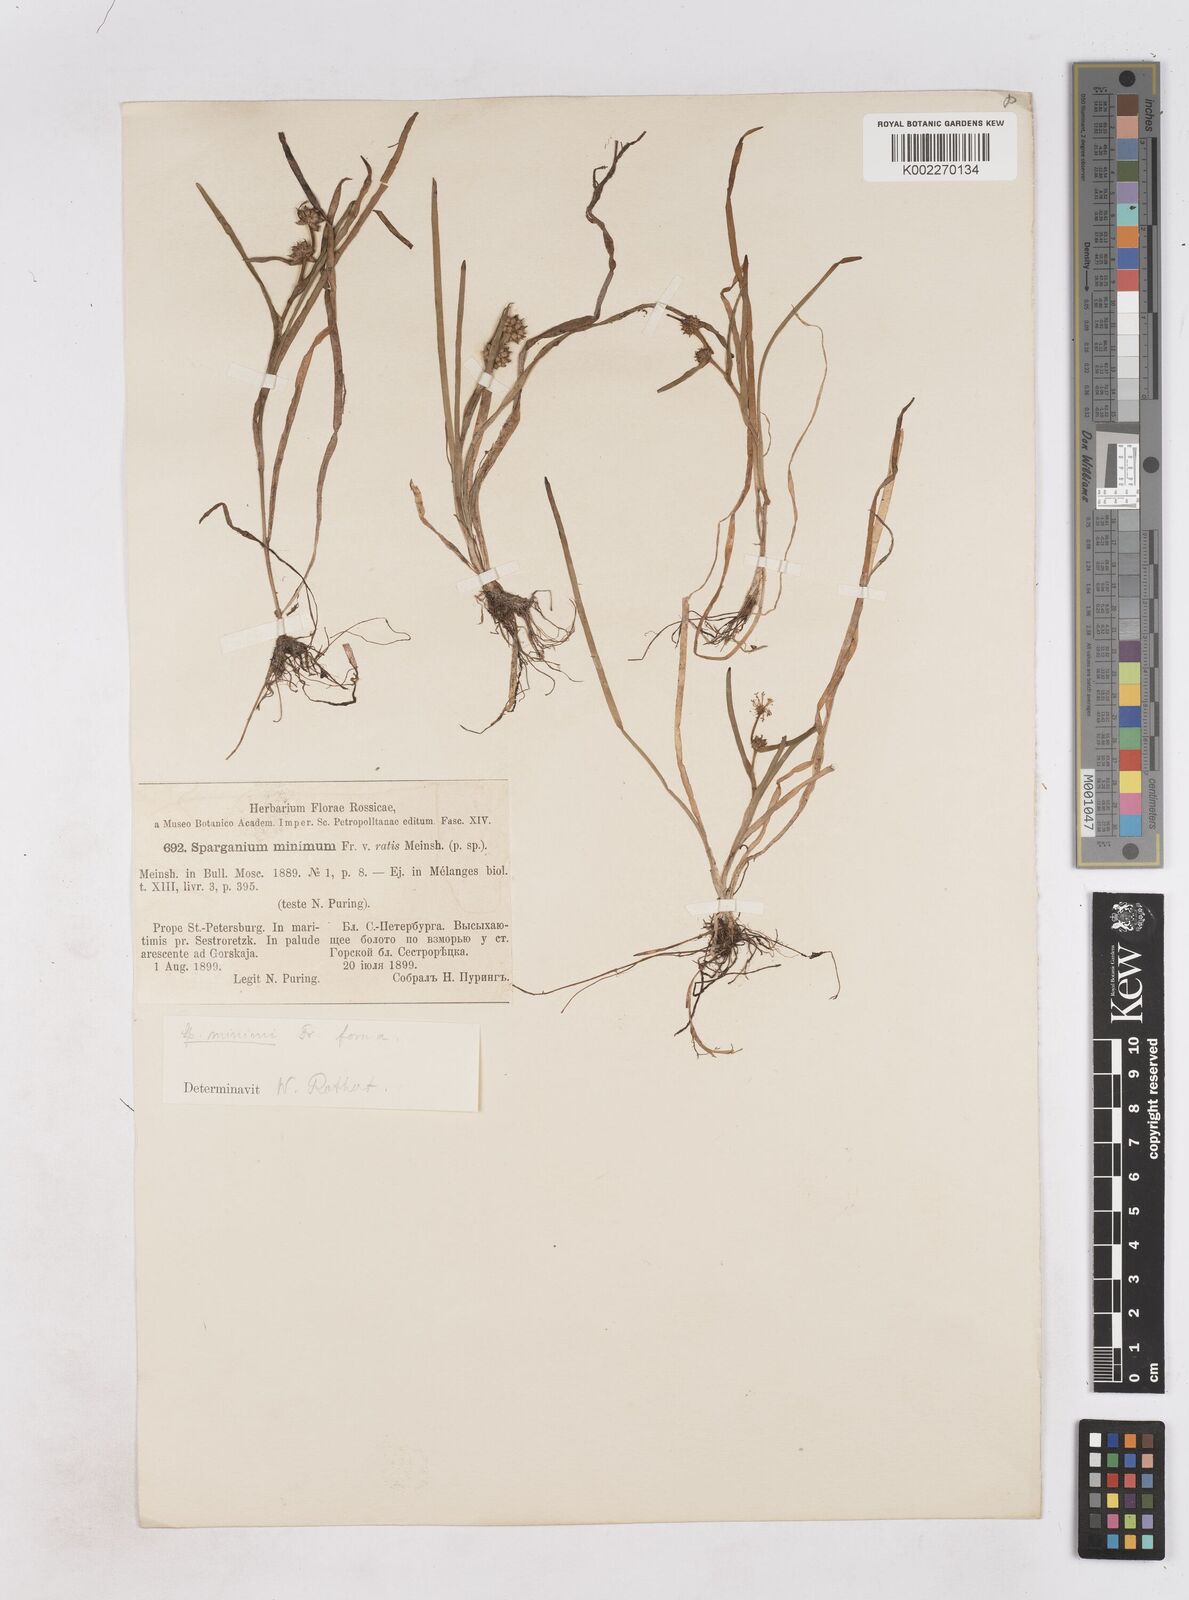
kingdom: Plantae
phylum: Tracheophyta
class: Liliopsida
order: Poales
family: Typhaceae
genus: Sparganium
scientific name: Sparganium natans
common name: Least bur-reed
